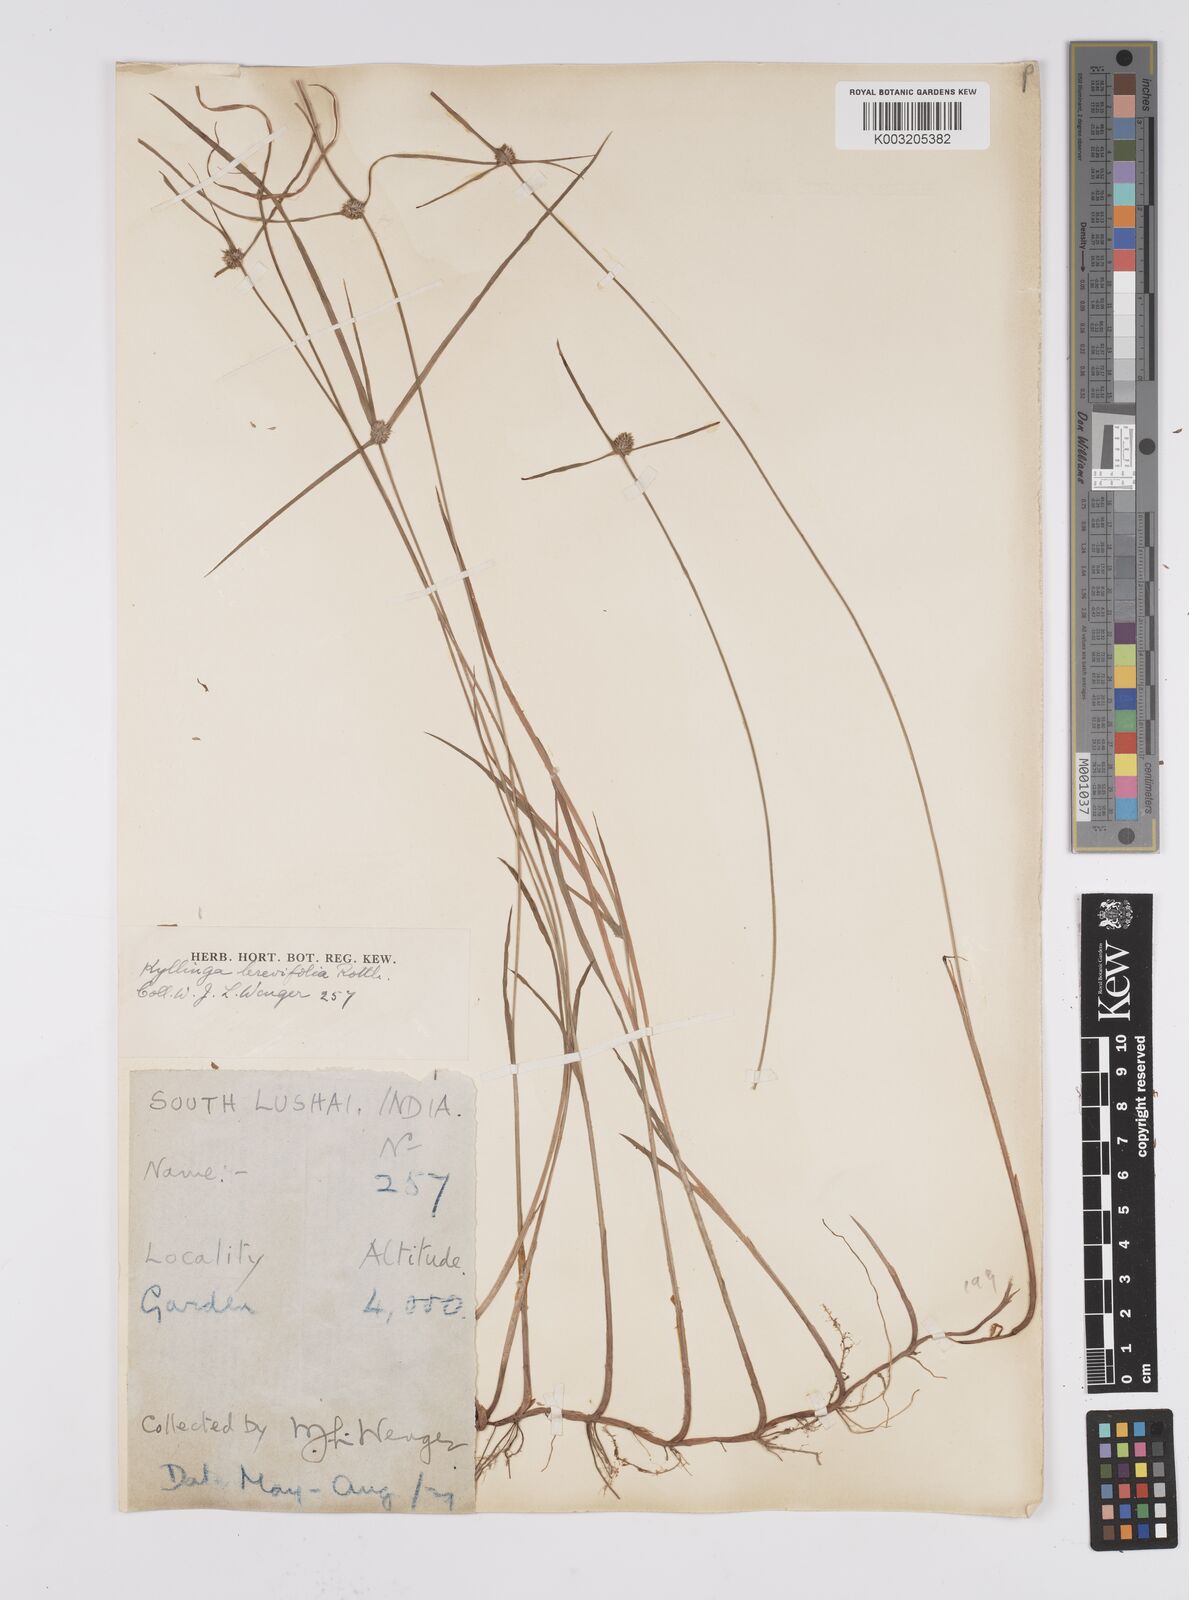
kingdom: Plantae
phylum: Tracheophyta
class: Liliopsida
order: Poales
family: Cyperaceae
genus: Cyperus
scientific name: Cyperus brevifolius
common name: Globe kyllinga
